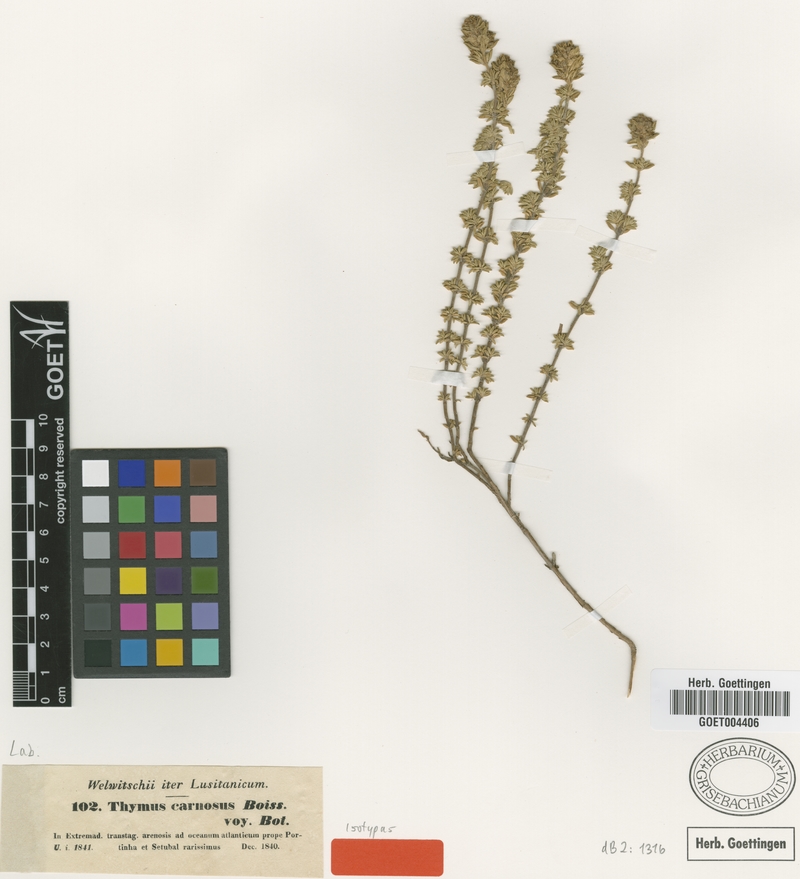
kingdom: Plantae
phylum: Tracheophyta
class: Magnoliopsida
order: Lamiales
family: Lamiaceae
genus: Thymus
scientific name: Thymus carnosus
